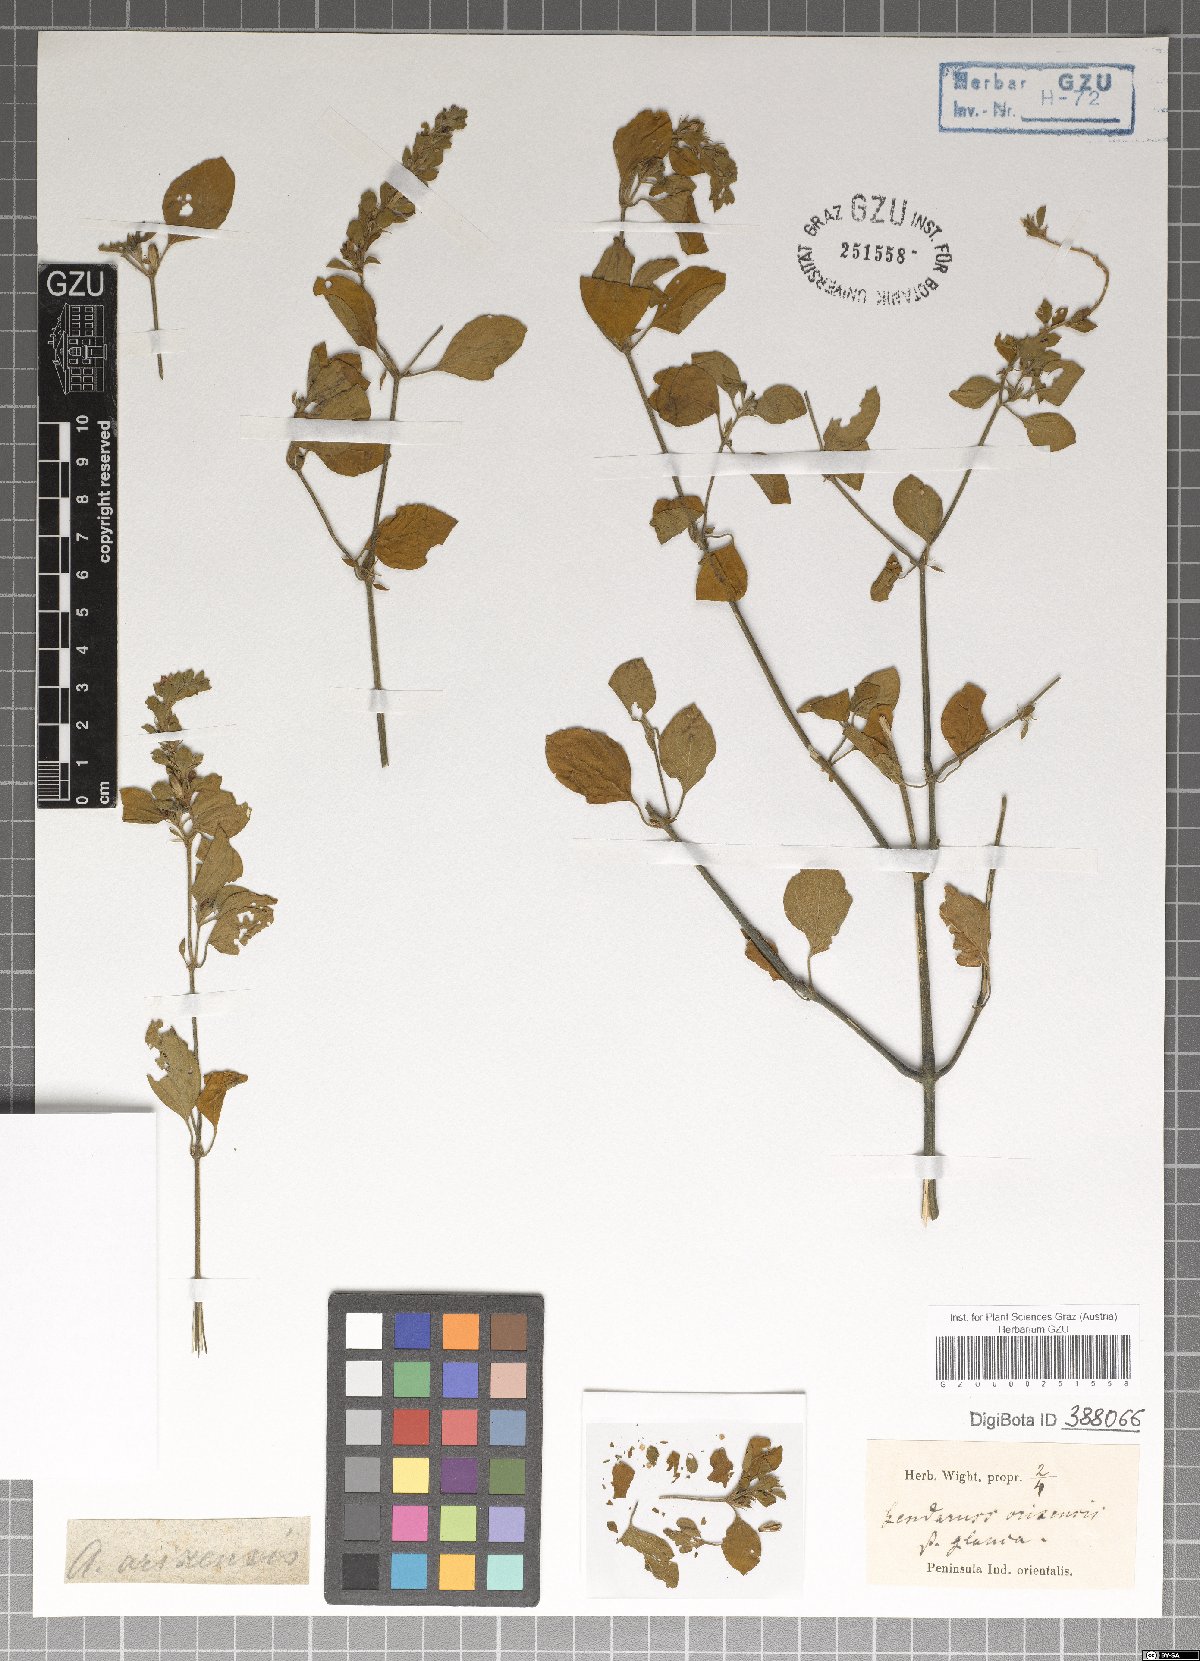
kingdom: Plantae
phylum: Tracheophyta
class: Magnoliopsida
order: Lamiales
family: Acanthaceae
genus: Justicia
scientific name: Justicia glauca
